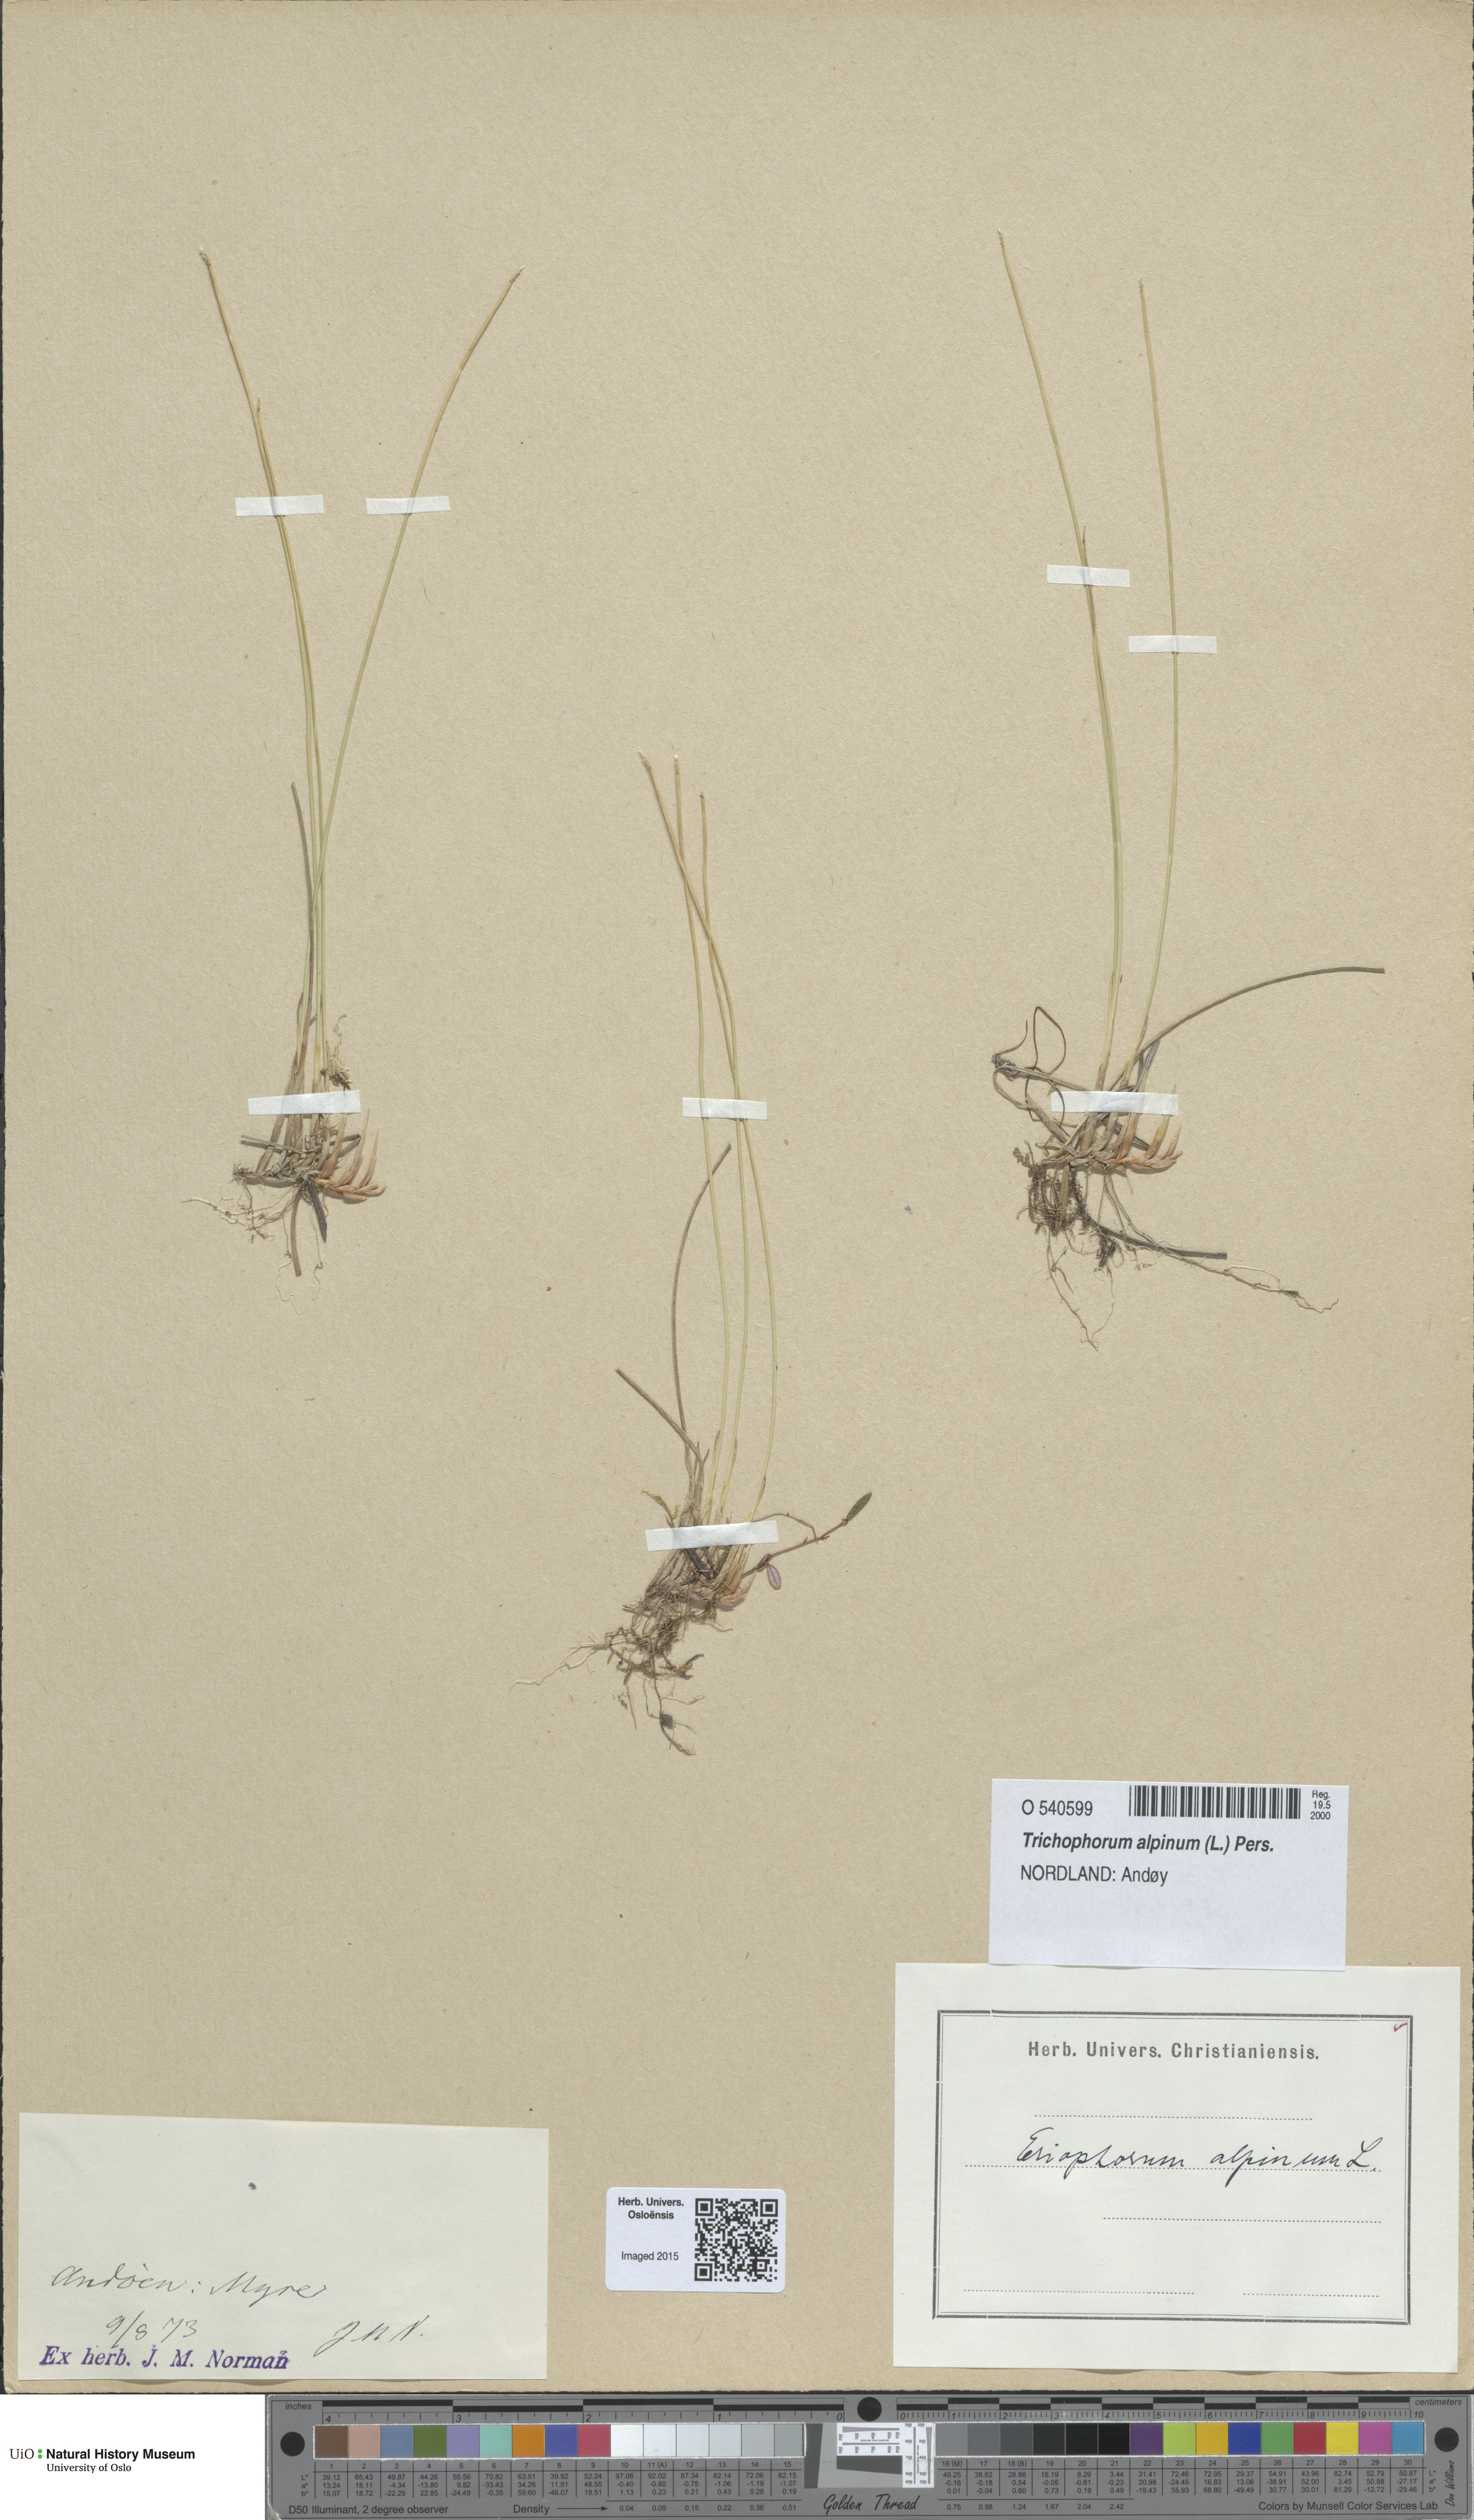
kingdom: Plantae
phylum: Tracheophyta
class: Liliopsida
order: Poales
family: Cyperaceae
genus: Trichophorum
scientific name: Trichophorum alpinum
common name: Alpine bulrush
